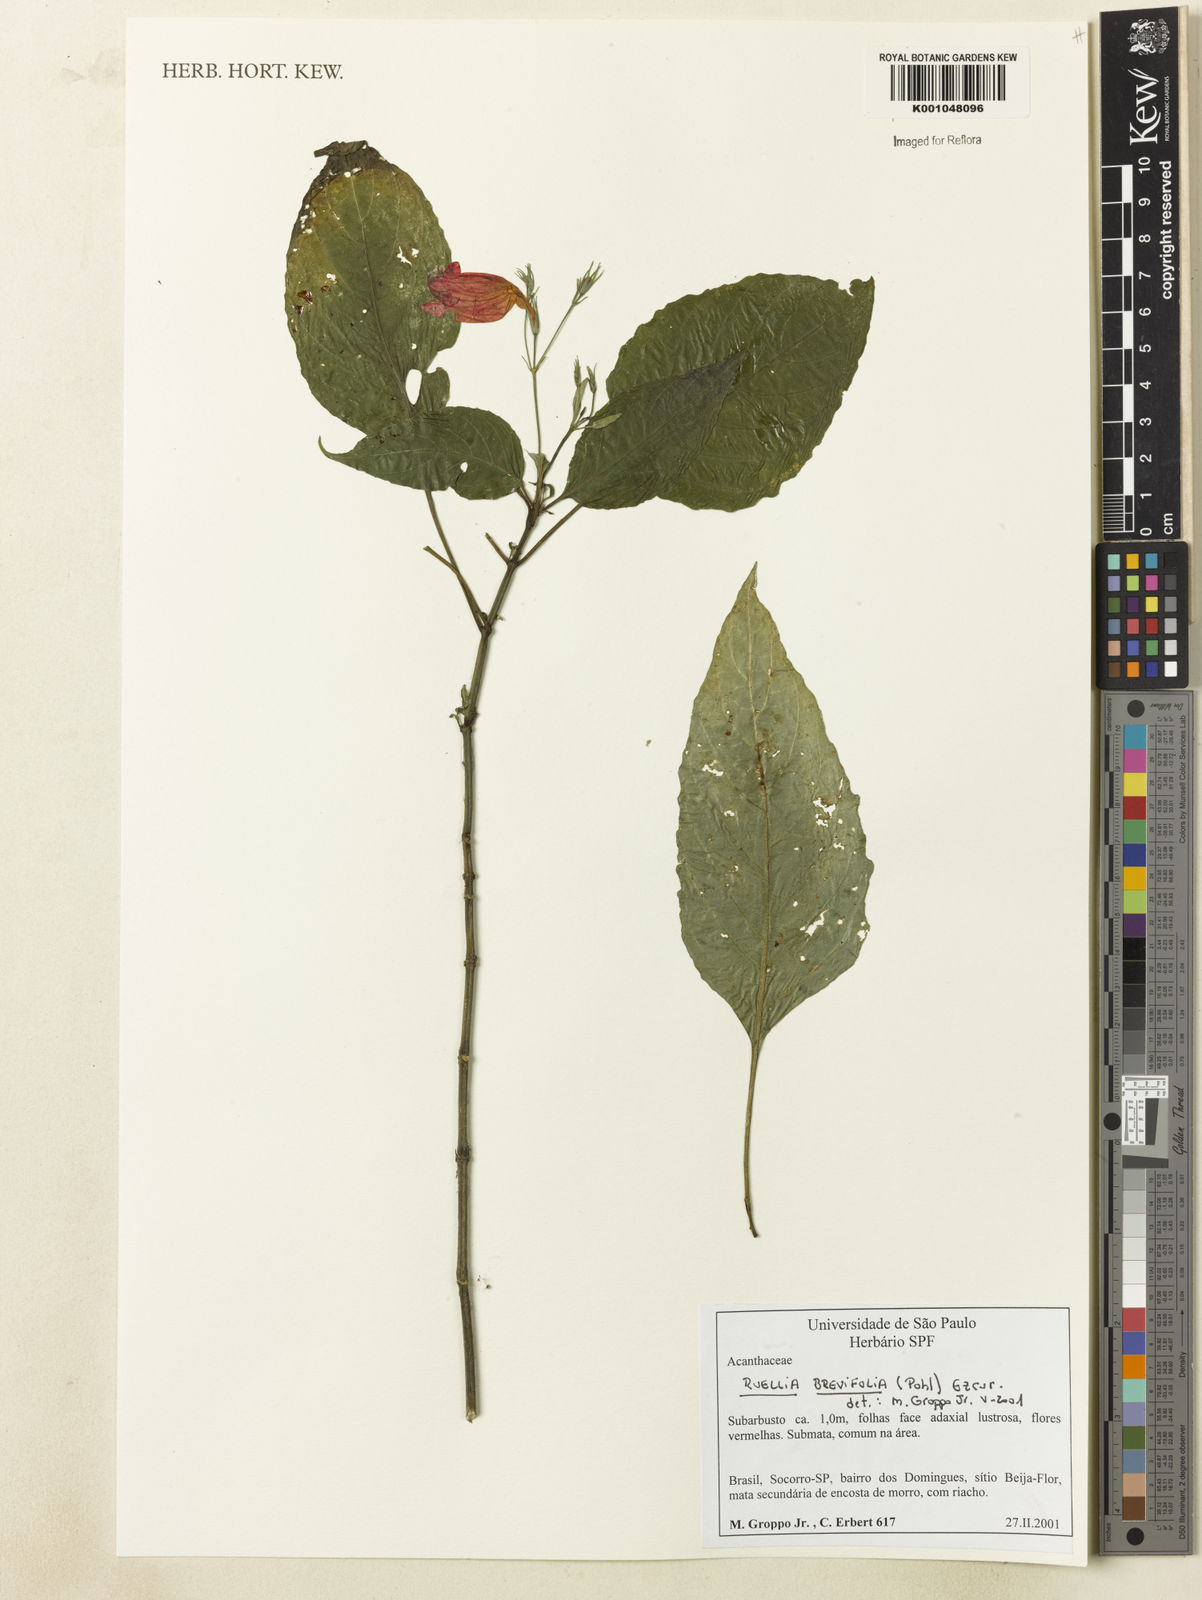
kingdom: Plantae
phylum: Tracheophyta
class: Magnoliopsida
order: Lamiales
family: Acanthaceae
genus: Ruellia
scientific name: Ruellia brevifolia
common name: Tropical wild petunia
